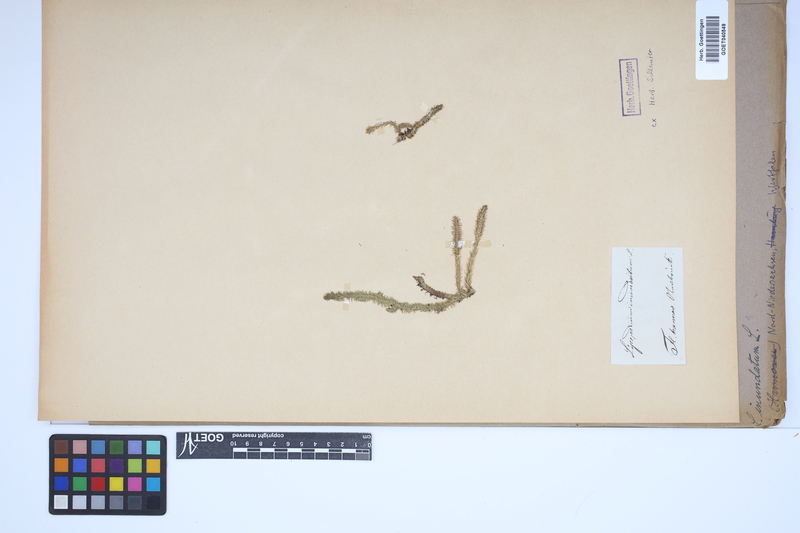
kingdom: Plantae
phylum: Tracheophyta
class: Lycopodiopsida
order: Lycopodiales
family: Lycopodiaceae
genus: Lycopodiella
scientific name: Lycopodiella inundata
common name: Marsh clubmoss
